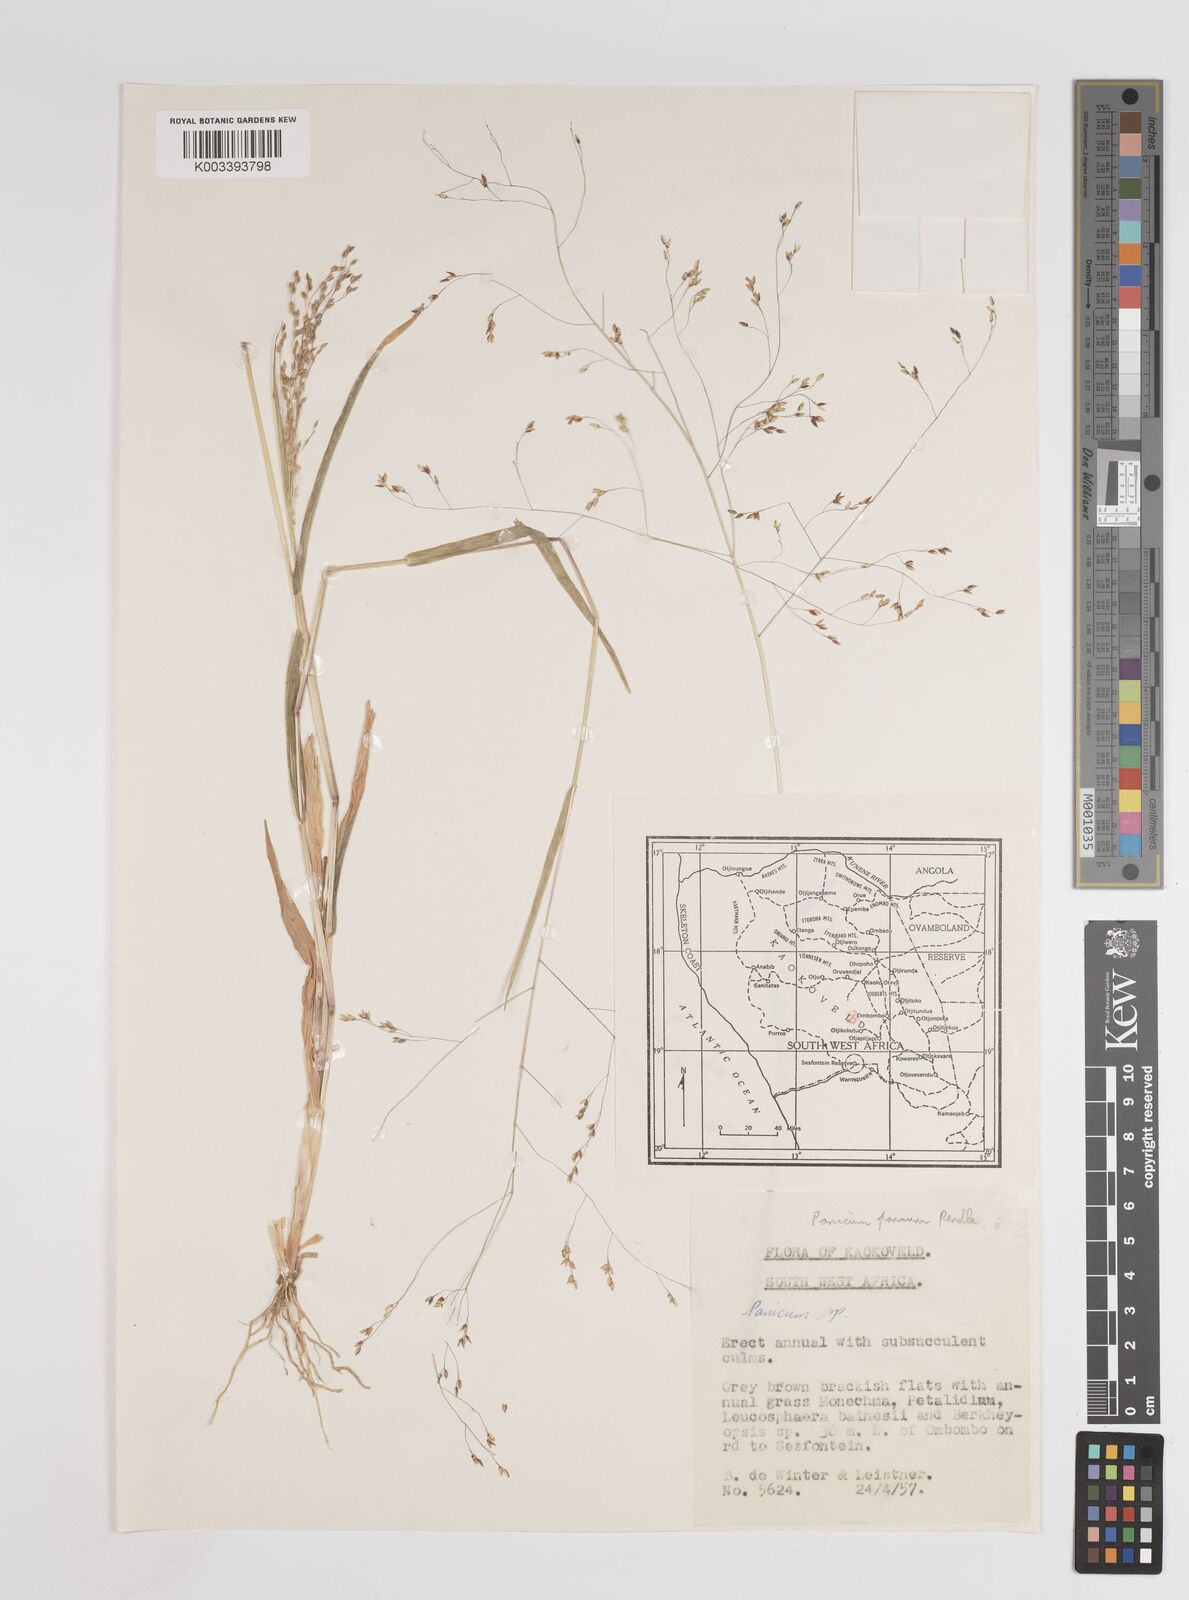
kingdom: Plantae
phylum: Tracheophyta
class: Liliopsida
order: Poales
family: Poaceae
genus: Panicum
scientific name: Panicum
